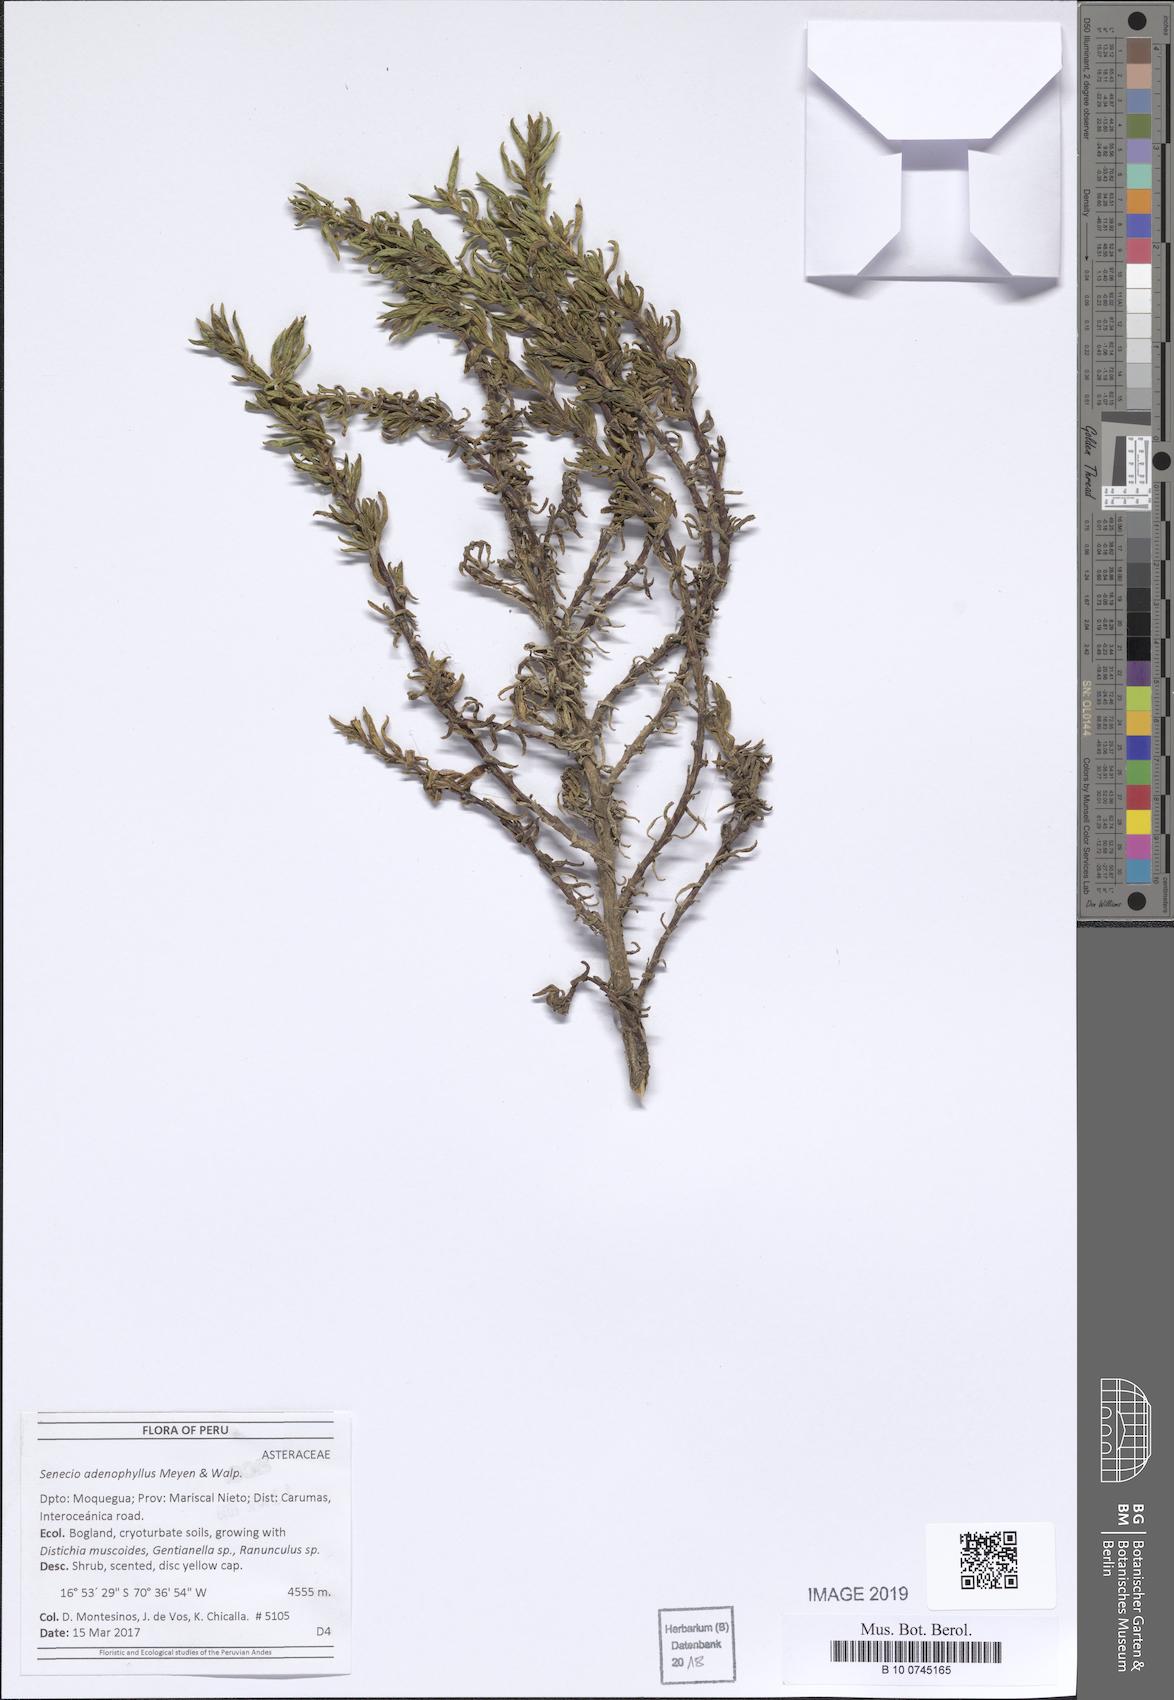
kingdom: Plantae
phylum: Tracheophyta
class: Magnoliopsida
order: Asterales
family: Asteraceae
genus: Senecio
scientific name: Senecio adenophyllus
